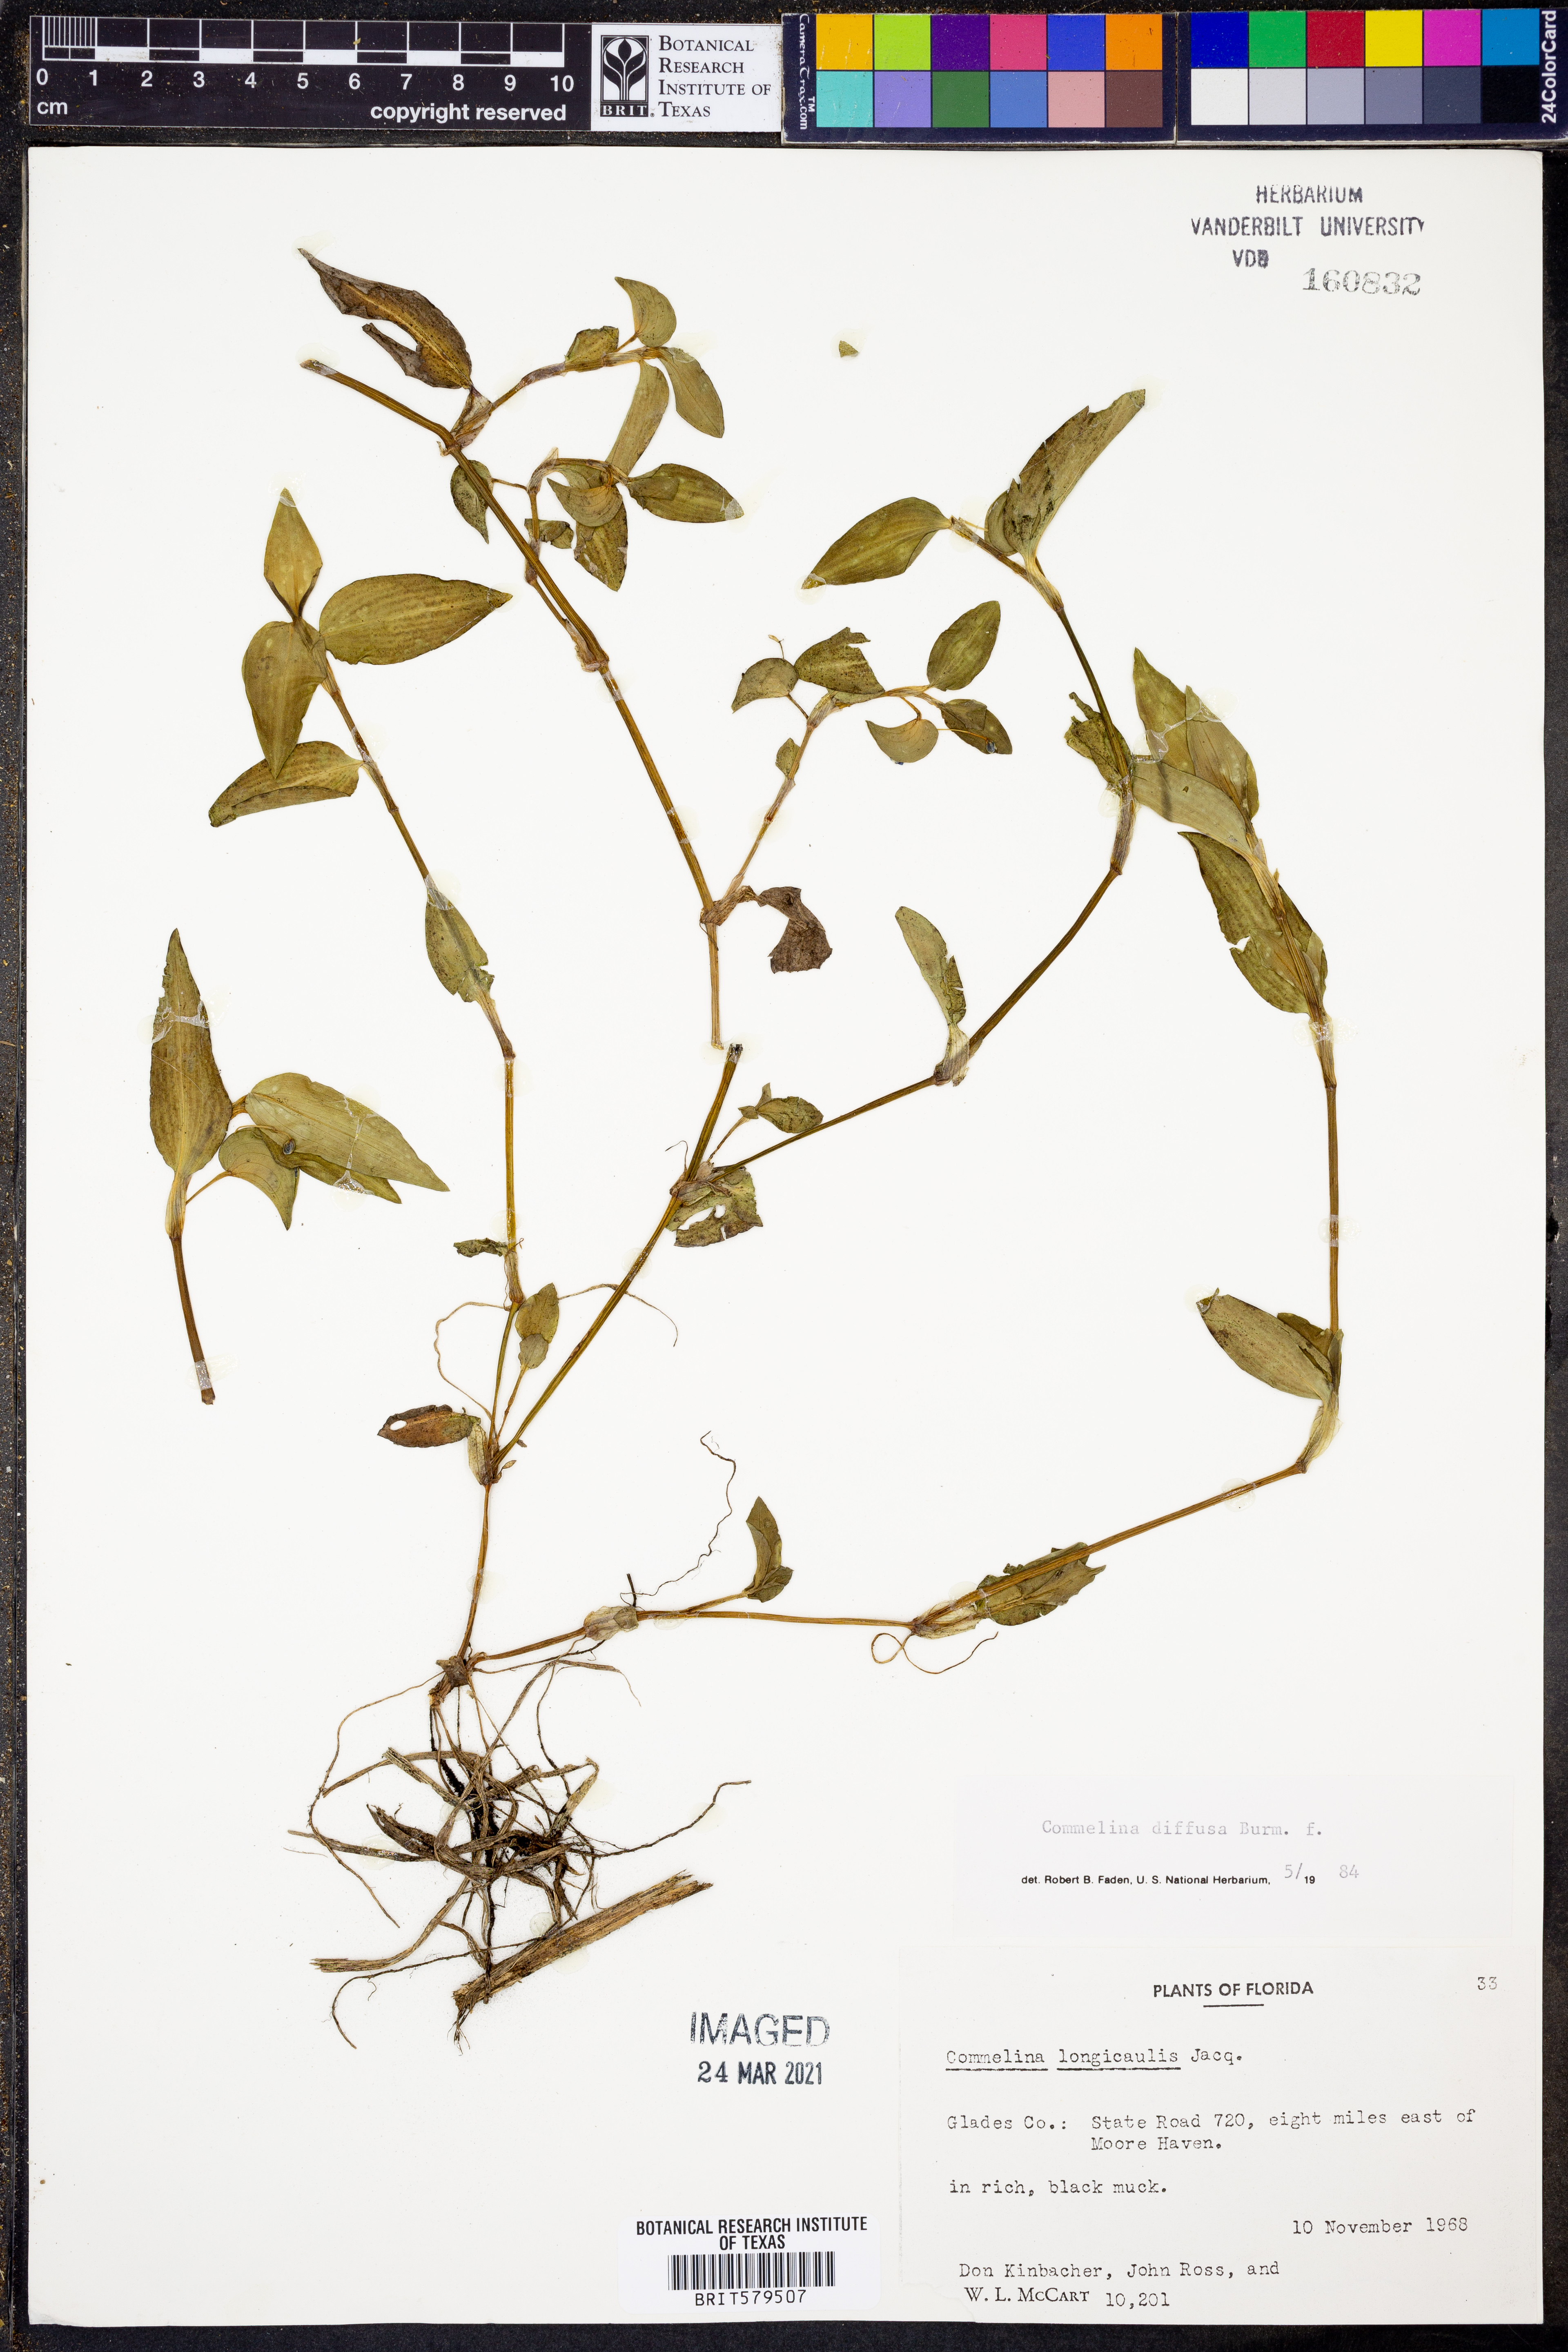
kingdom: Plantae
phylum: Tracheophyta
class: Liliopsida
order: Commelinales
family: Commelinaceae
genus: Commelina
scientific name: Commelina diffusa
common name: Climbing dayflower
